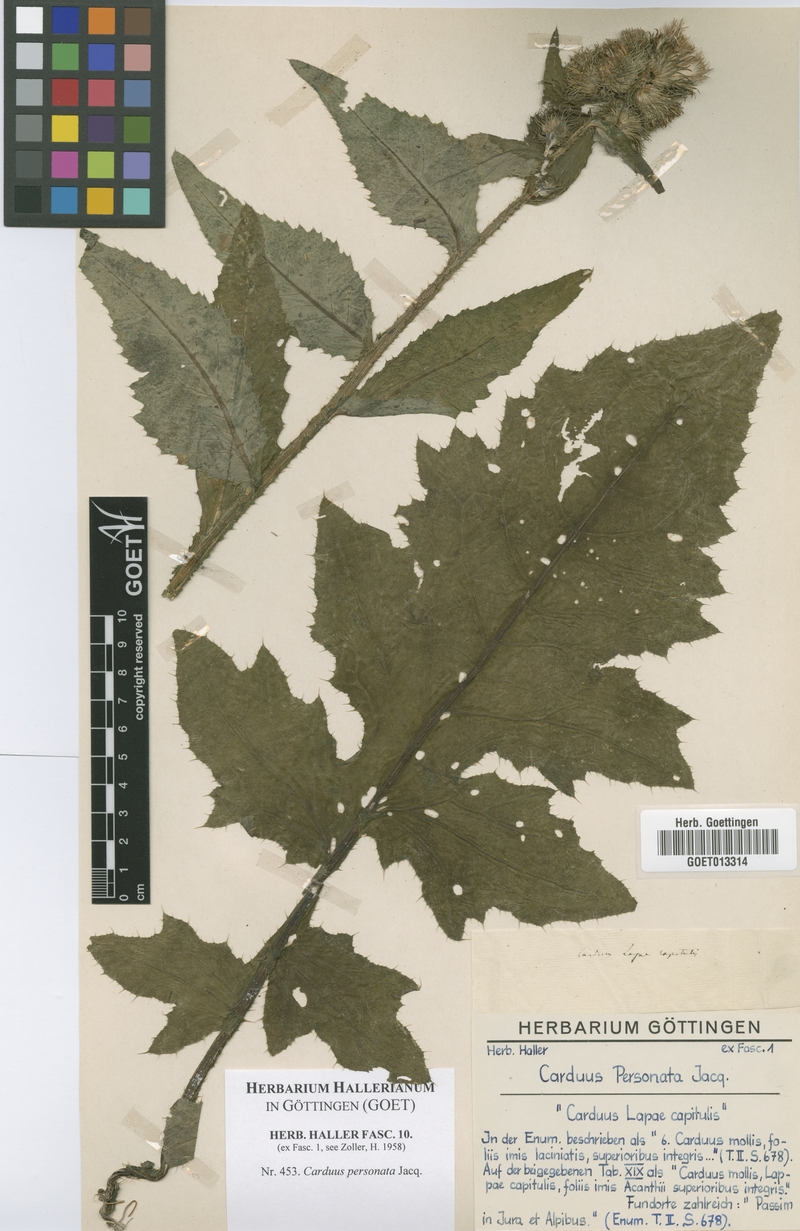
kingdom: Plantae
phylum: Tracheophyta
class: Magnoliopsida
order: Asterales
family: Asteraceae
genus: Carduus
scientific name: Carduus personata
